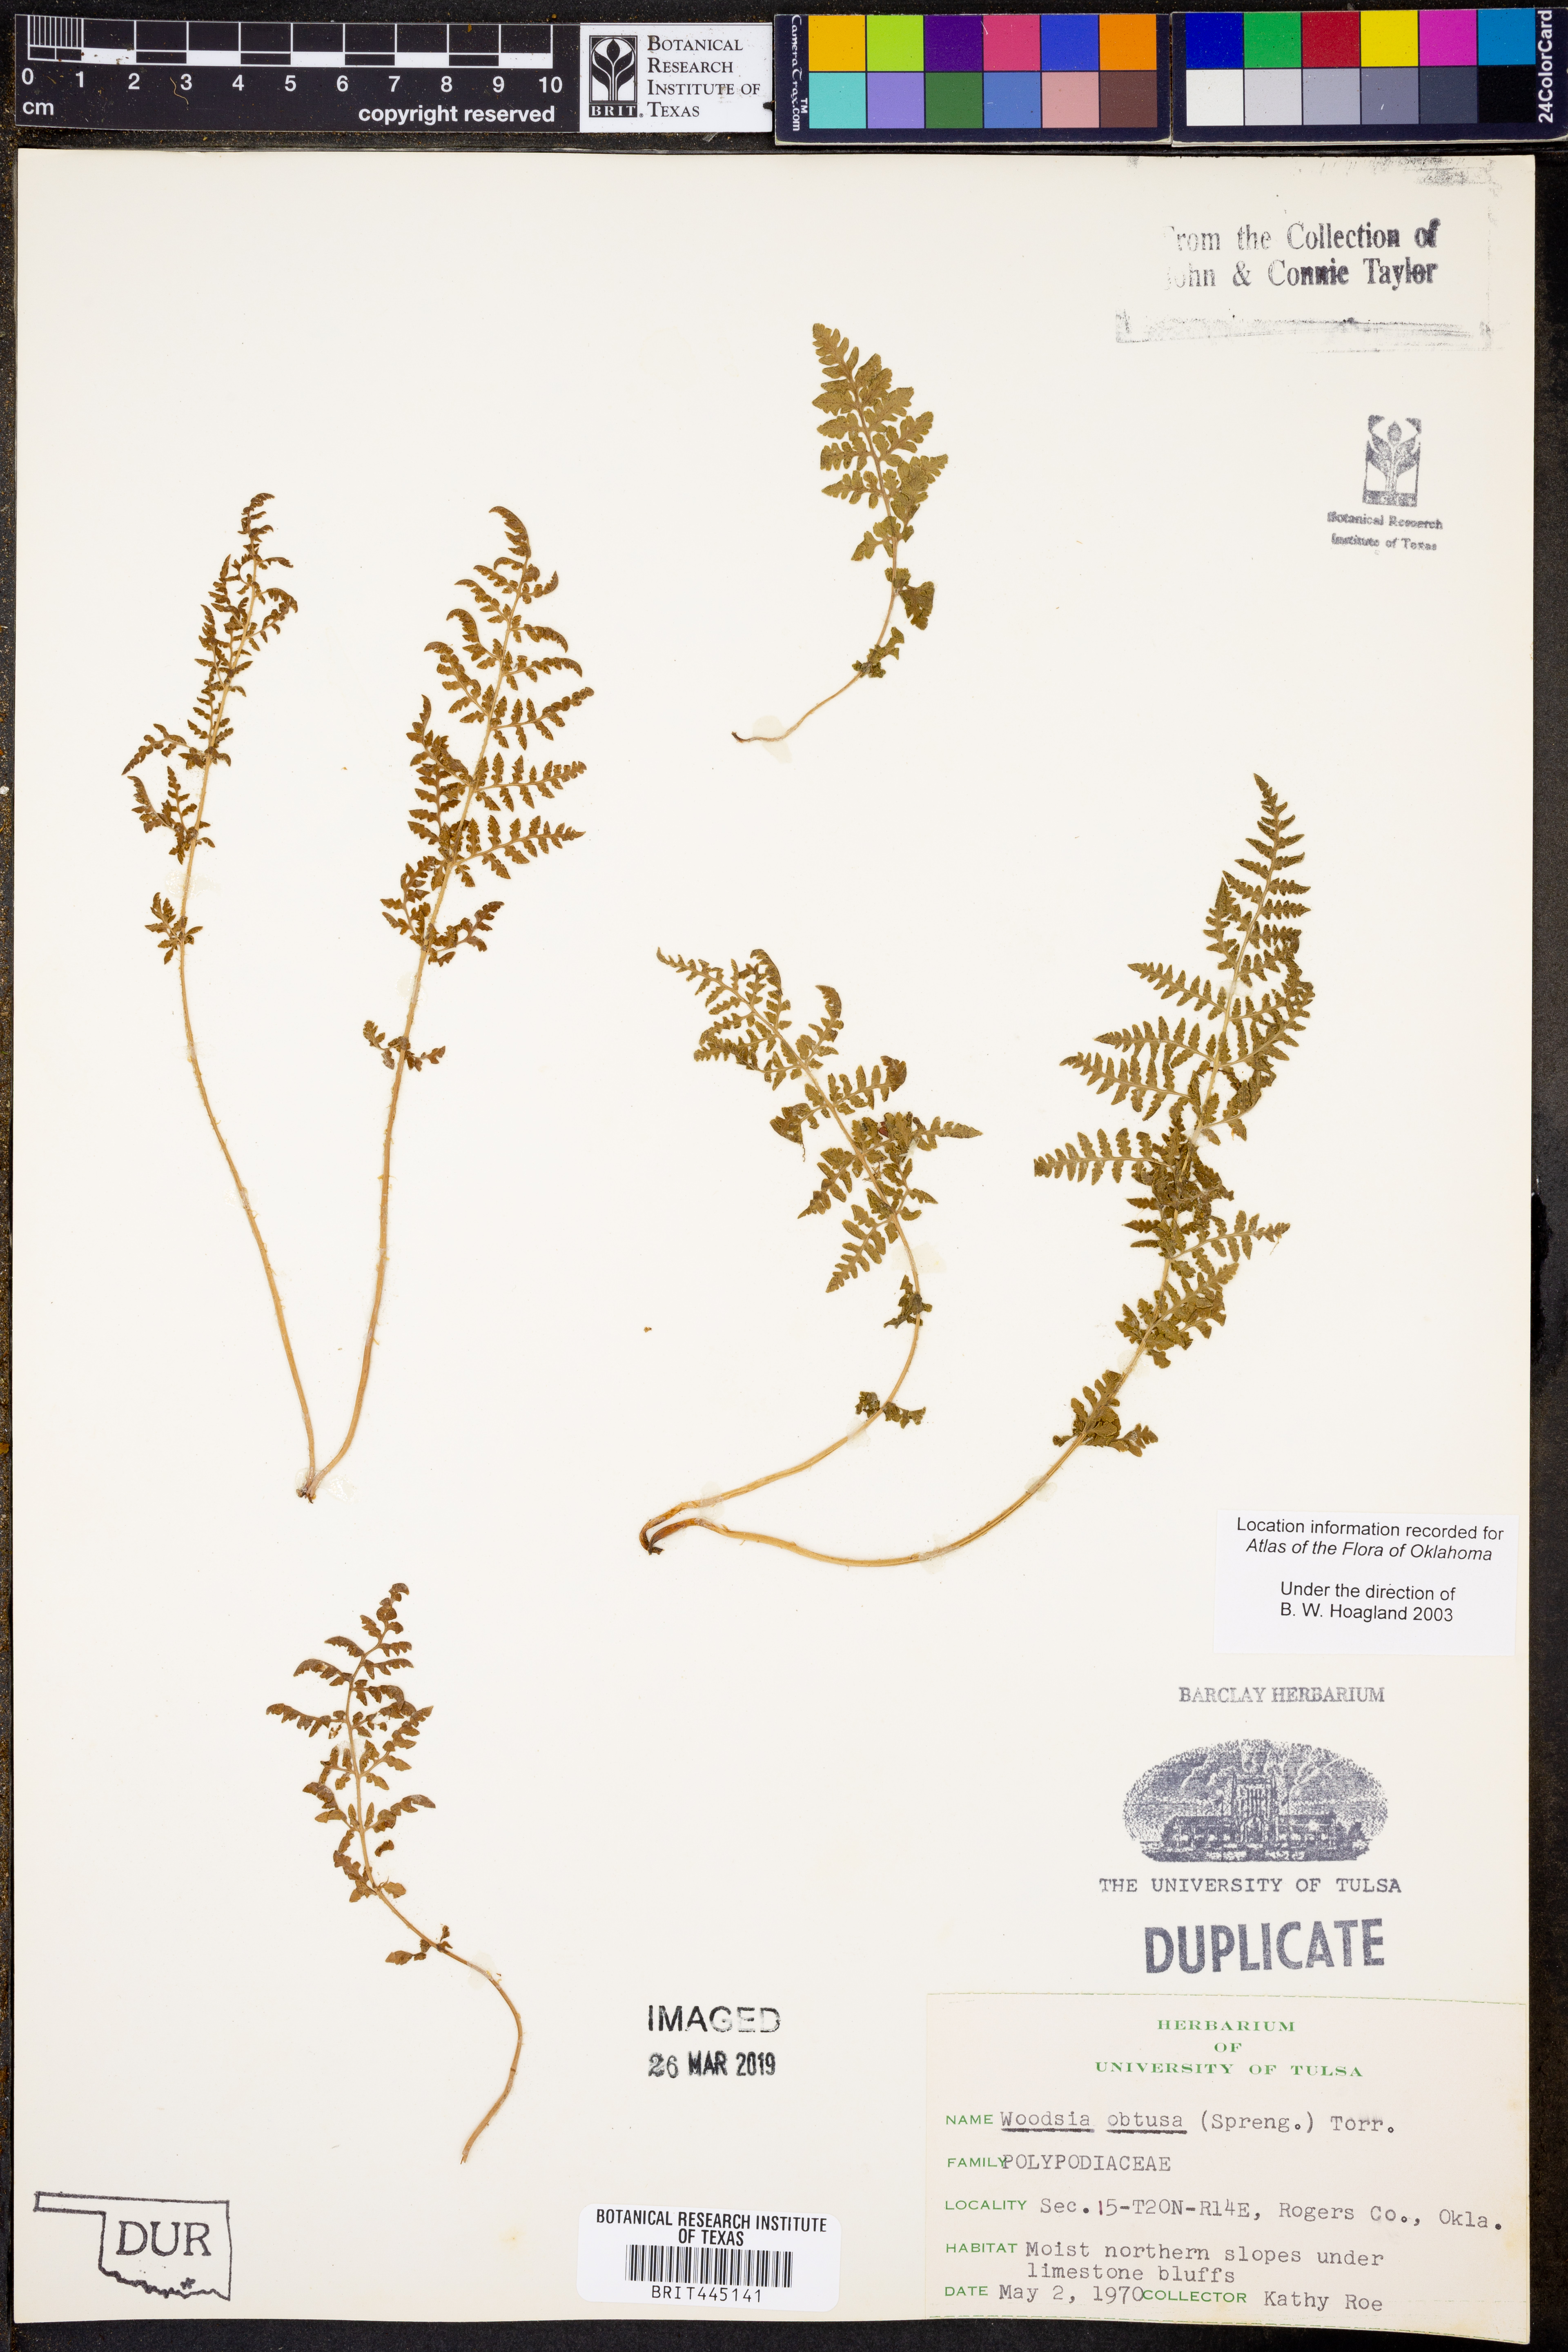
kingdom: Plantae
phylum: Tracheophyta
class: Polypodiopsida
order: Polypodiales
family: Woodsiaceae
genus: Physematium
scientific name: Physematium obtusum
